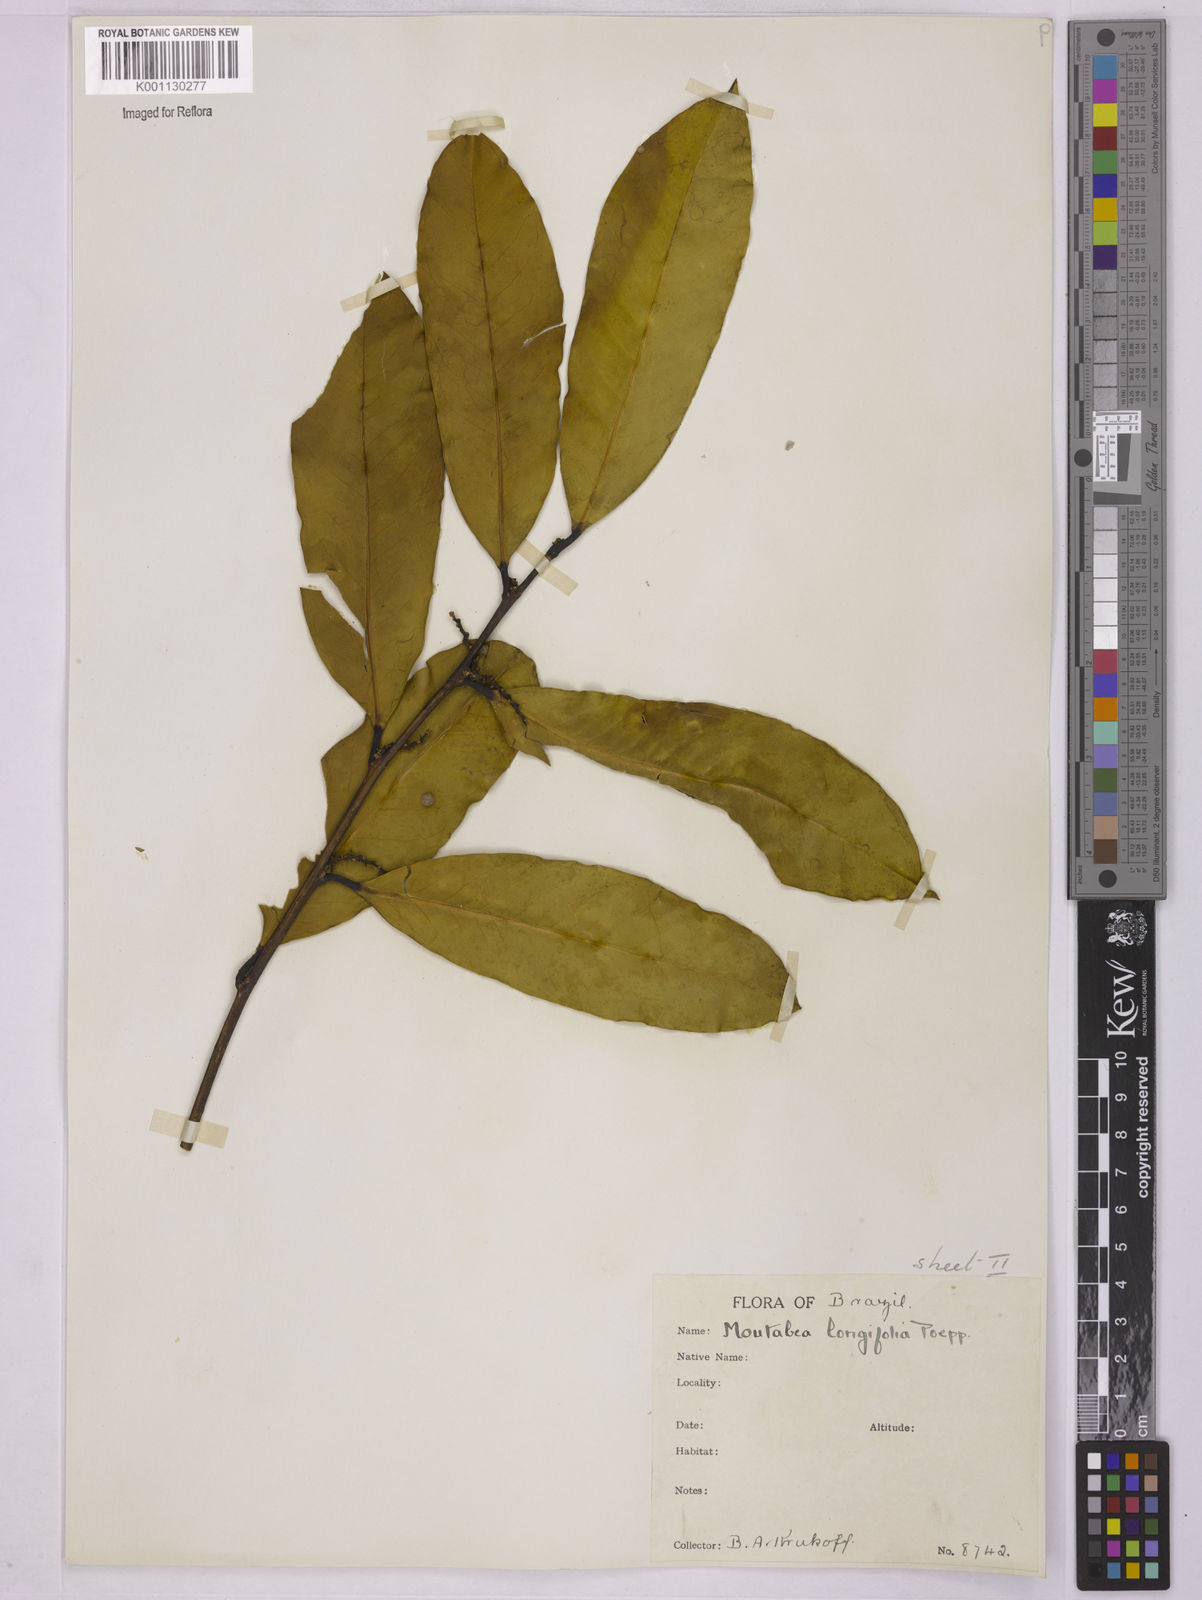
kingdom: Plantae
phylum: Tracheophyta
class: Magnoliopsida
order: Fabales
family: Polygalaceae
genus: Moutabea
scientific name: Moutabea aculeata
